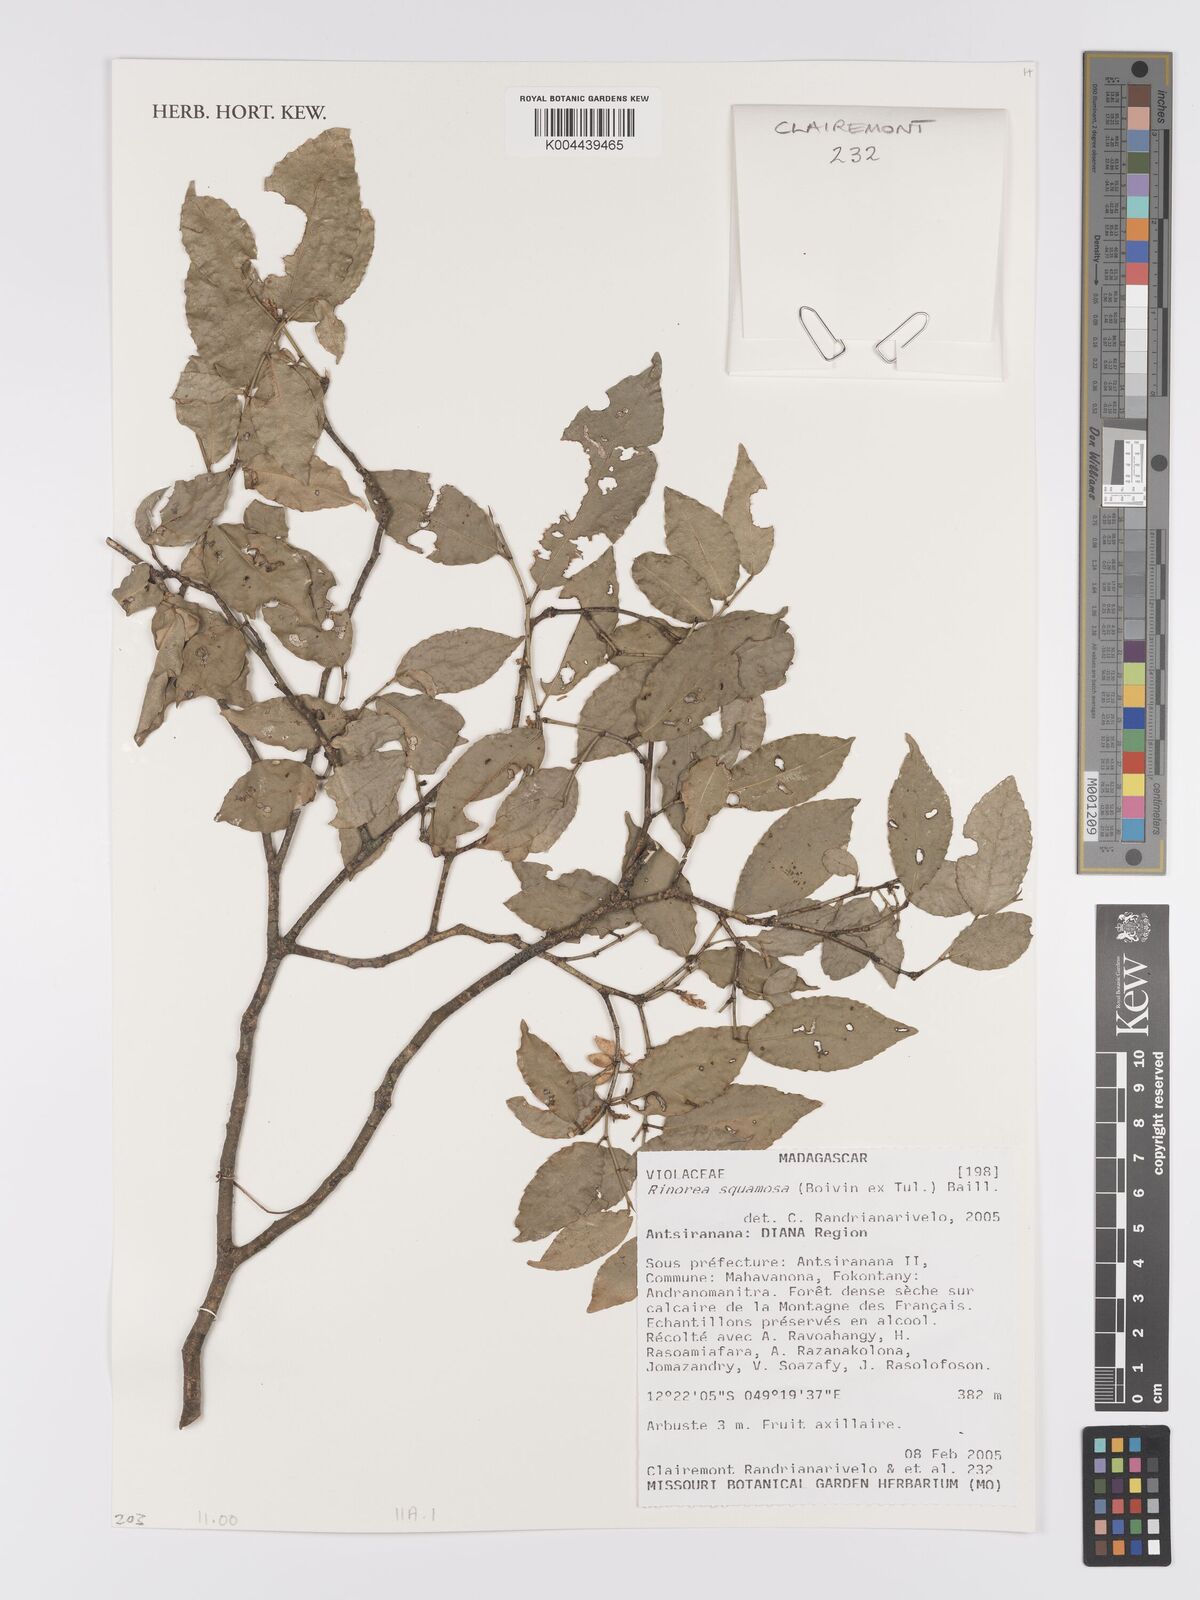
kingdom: Plantae
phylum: Tracheophyta
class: Magnoliopsida
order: Malpighiales
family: Violaceae
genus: Rinorea
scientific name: Rinorea squamosa
